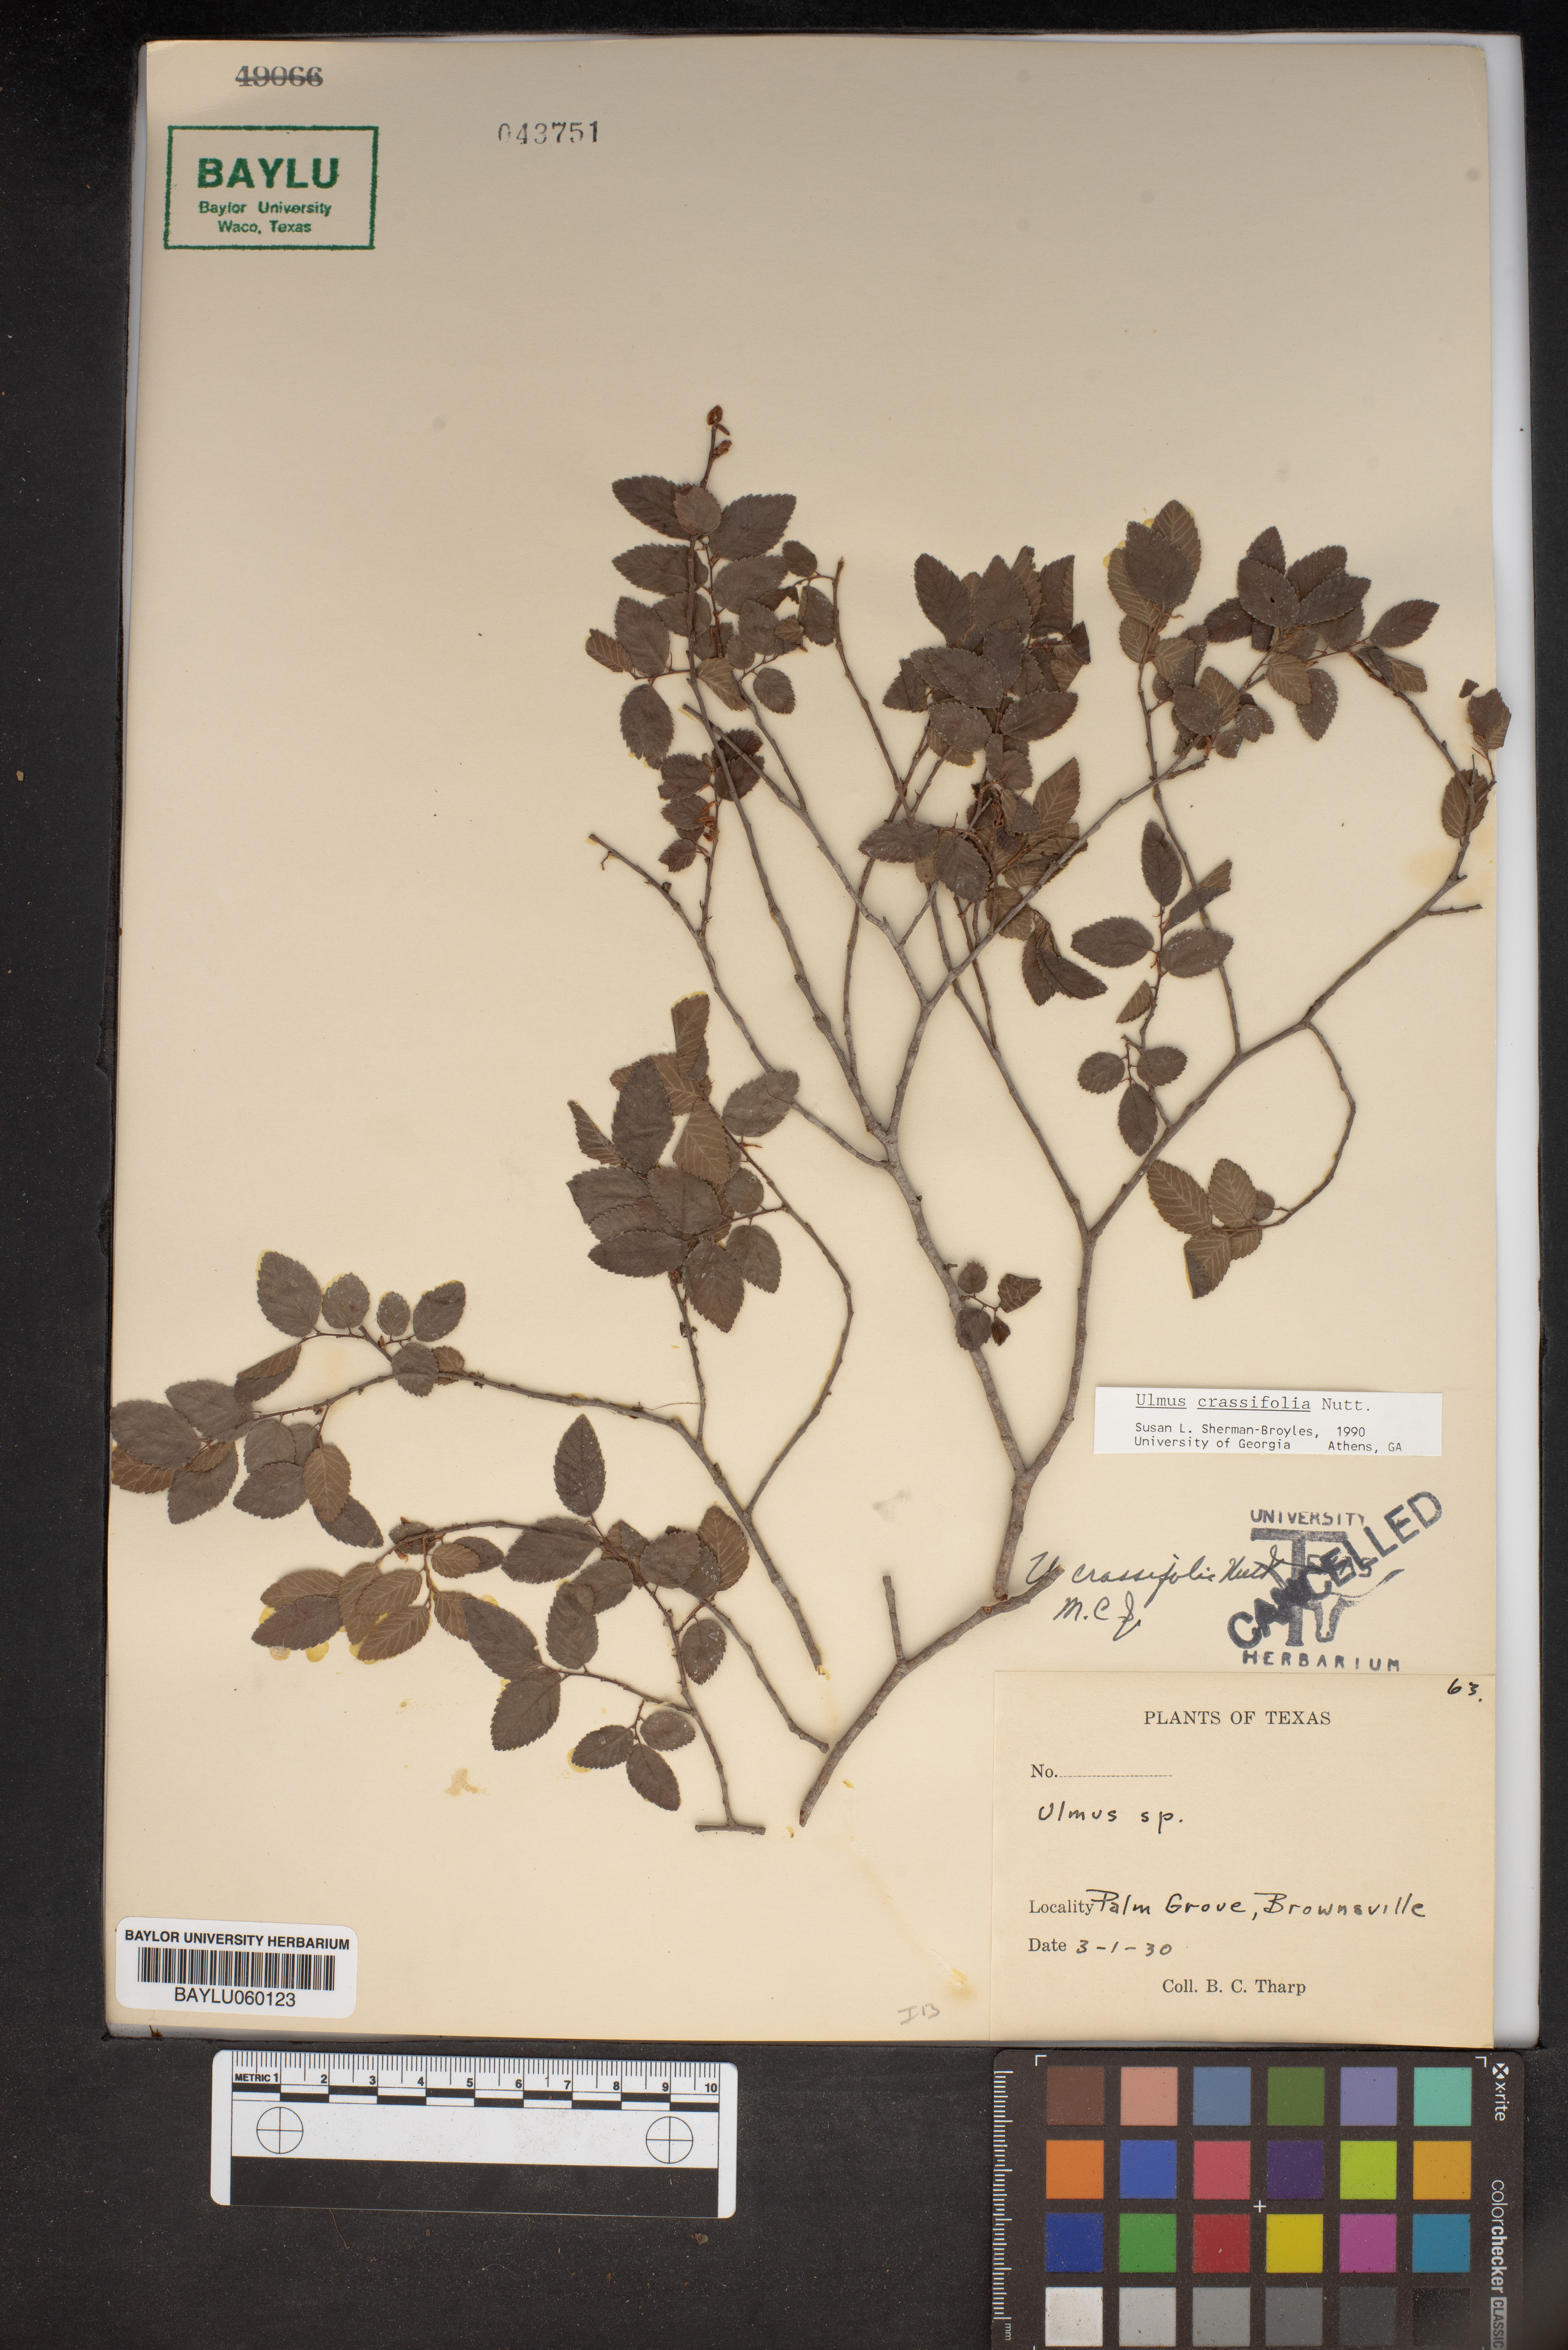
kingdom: Plantae
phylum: Tracheophyta
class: Magnoliopsida
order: Rosales
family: Ulmaceae
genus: Ulmus
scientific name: Ulmus
